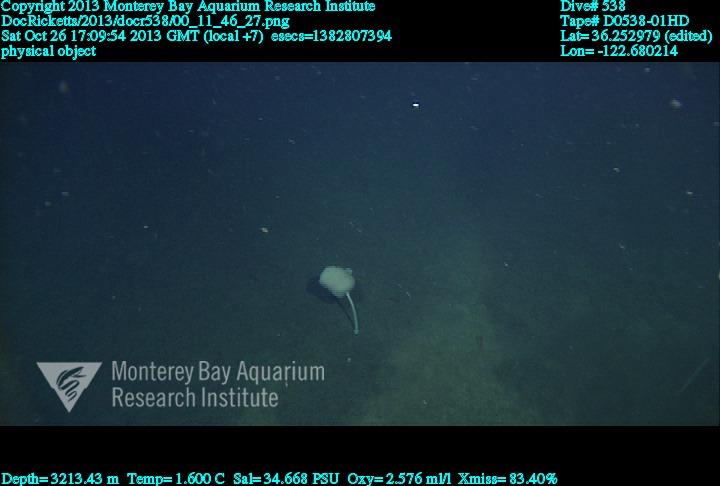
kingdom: Animalia
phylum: Porifera
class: Hexactinellida
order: Amphidiscosida
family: Hyalonematidae
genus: Hyalonema
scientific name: Hyalonema
